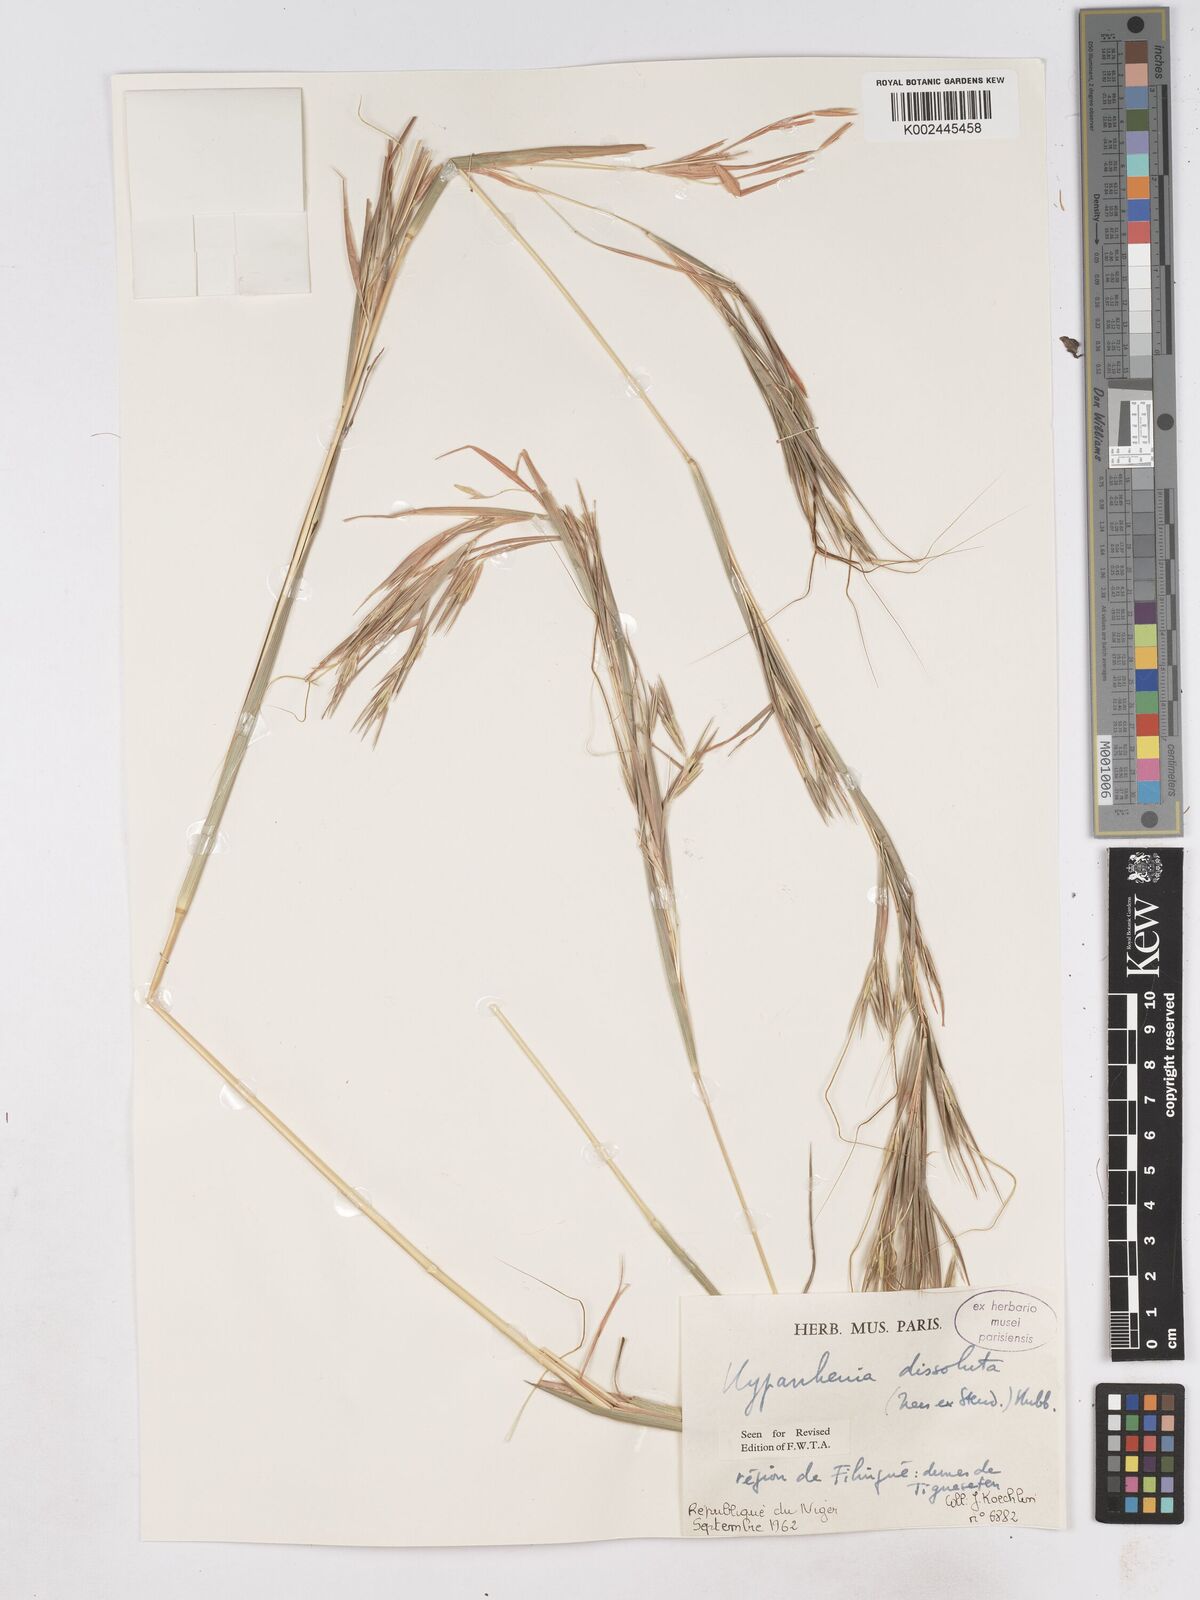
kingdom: Plantae
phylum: Tracheophyta
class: Liliopsida
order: Poales
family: Poaceae
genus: Hyperthelia
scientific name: Hyperthelia dissoluta
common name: Yellow thatching grass
